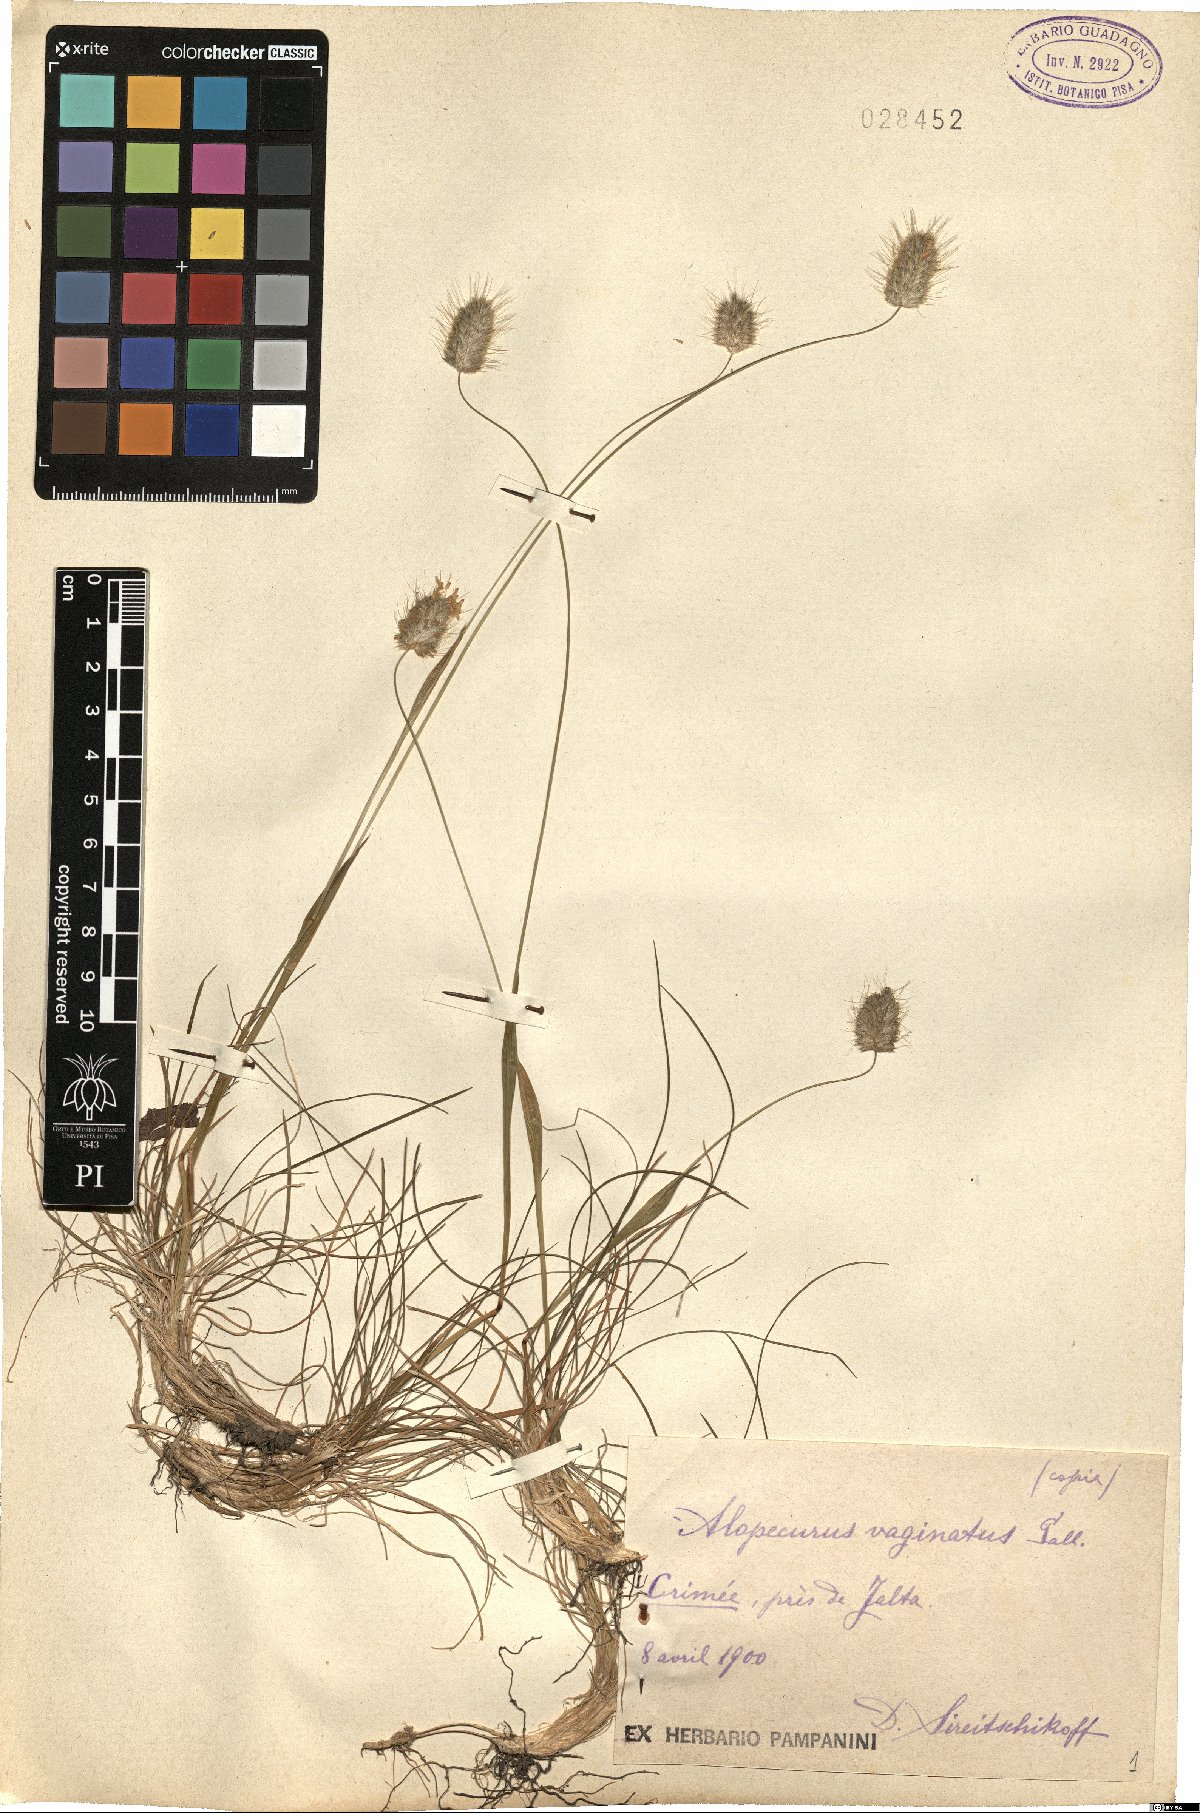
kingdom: Plantae
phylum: Tracheophyta
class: Liliopsida
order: Poales
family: Poaceae
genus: Alopecurus
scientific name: Alopecurus vaginatus
